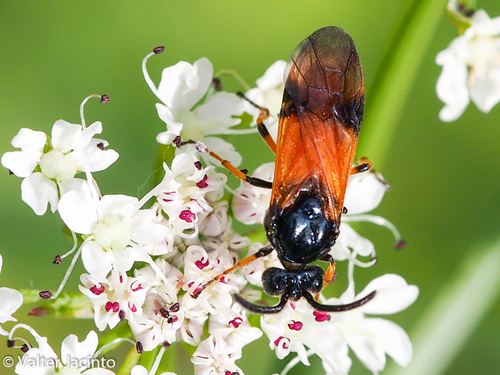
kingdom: Animalia
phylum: Arthropoda
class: Insecta
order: Hymenoptera
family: Argidae
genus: Arge
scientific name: Arge cyanocrocea
